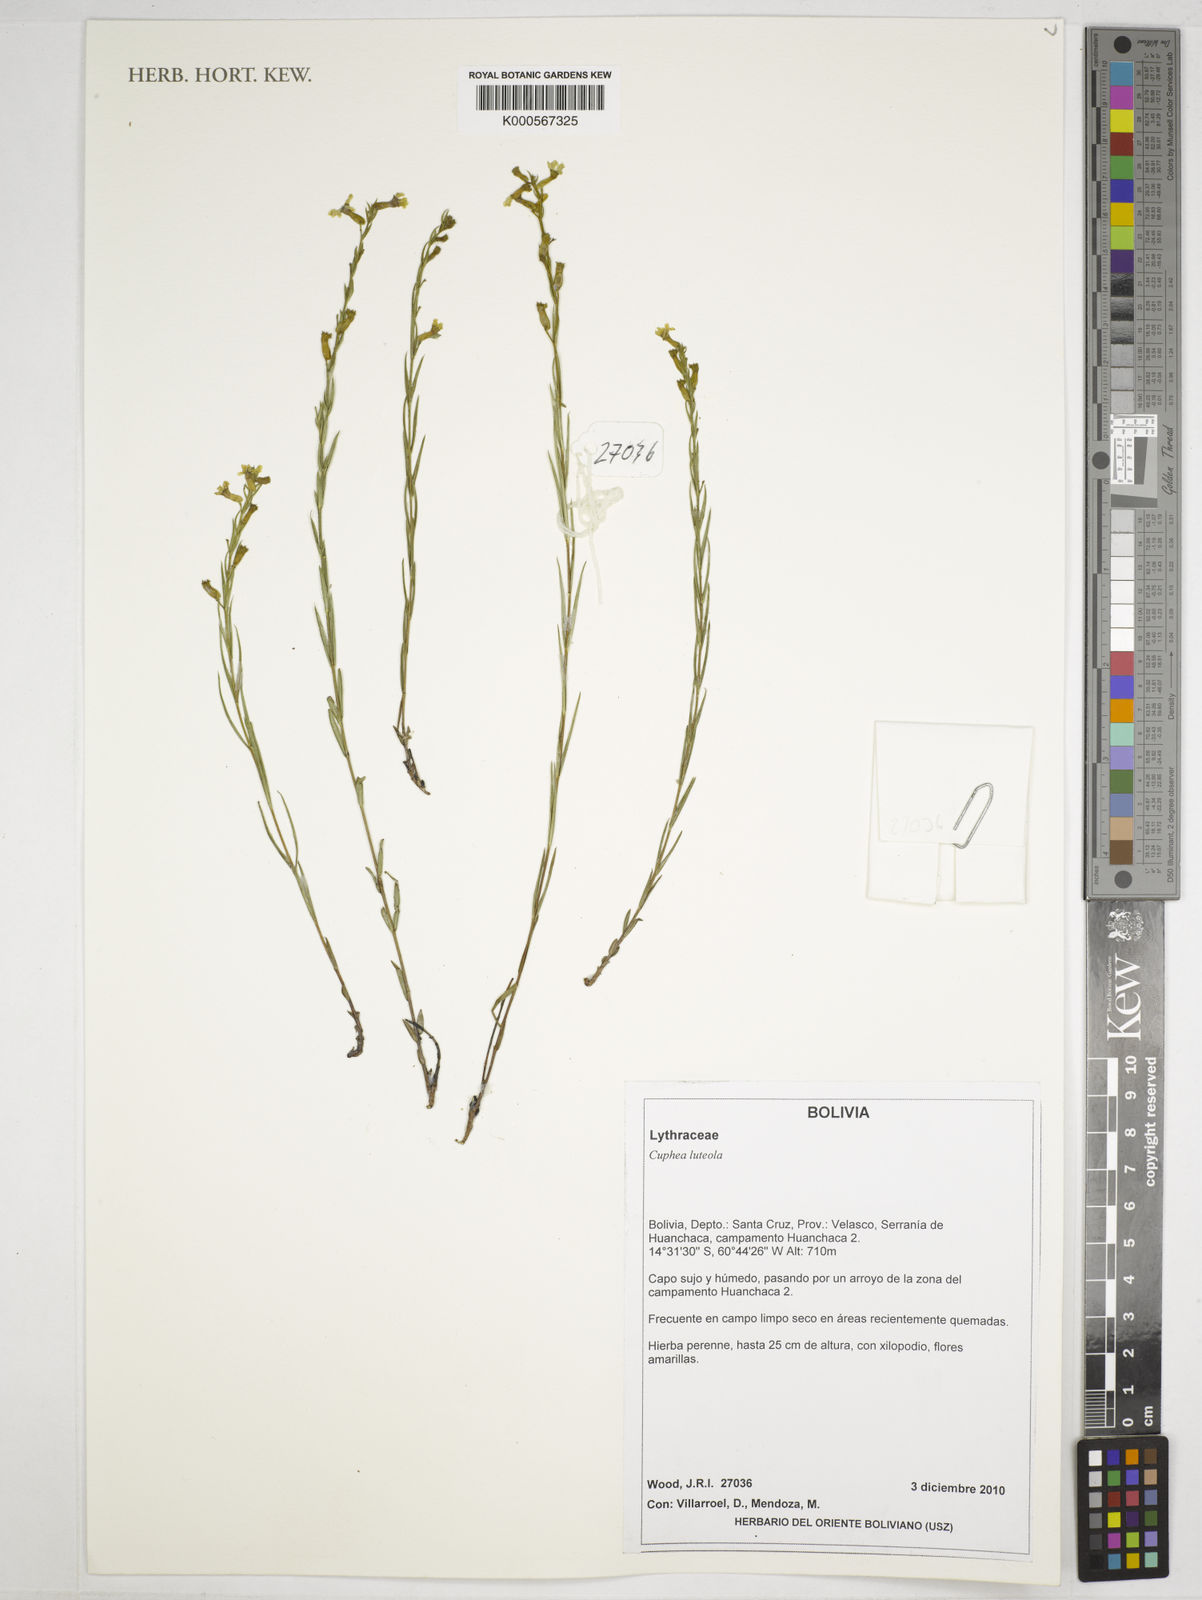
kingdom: Plantae
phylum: Tracheophyta
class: Magnoliopsida
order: Myrtales
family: Lythraceae
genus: Cuphea
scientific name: Cuphea
